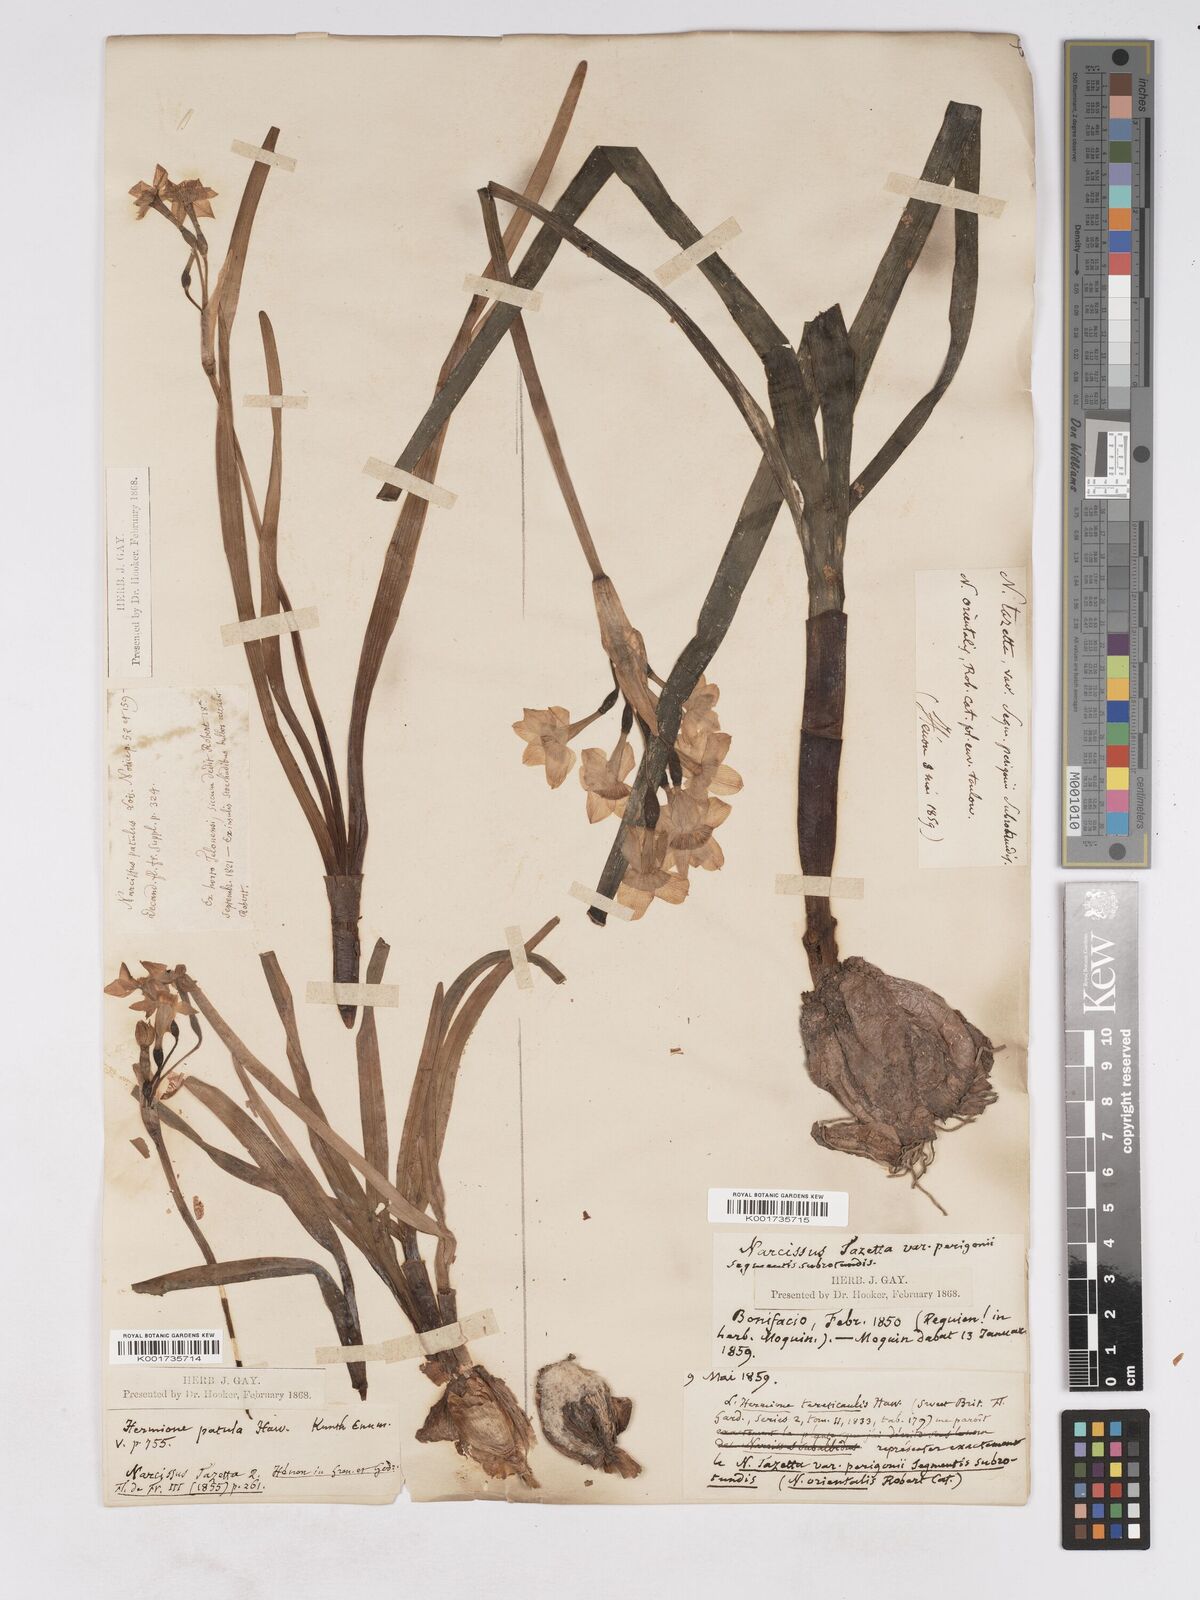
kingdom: Plantae
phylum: Tracheophyta
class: Liliopsida
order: Asparagales
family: Amaryllidaceae
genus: Narcissus
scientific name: Narcissus
